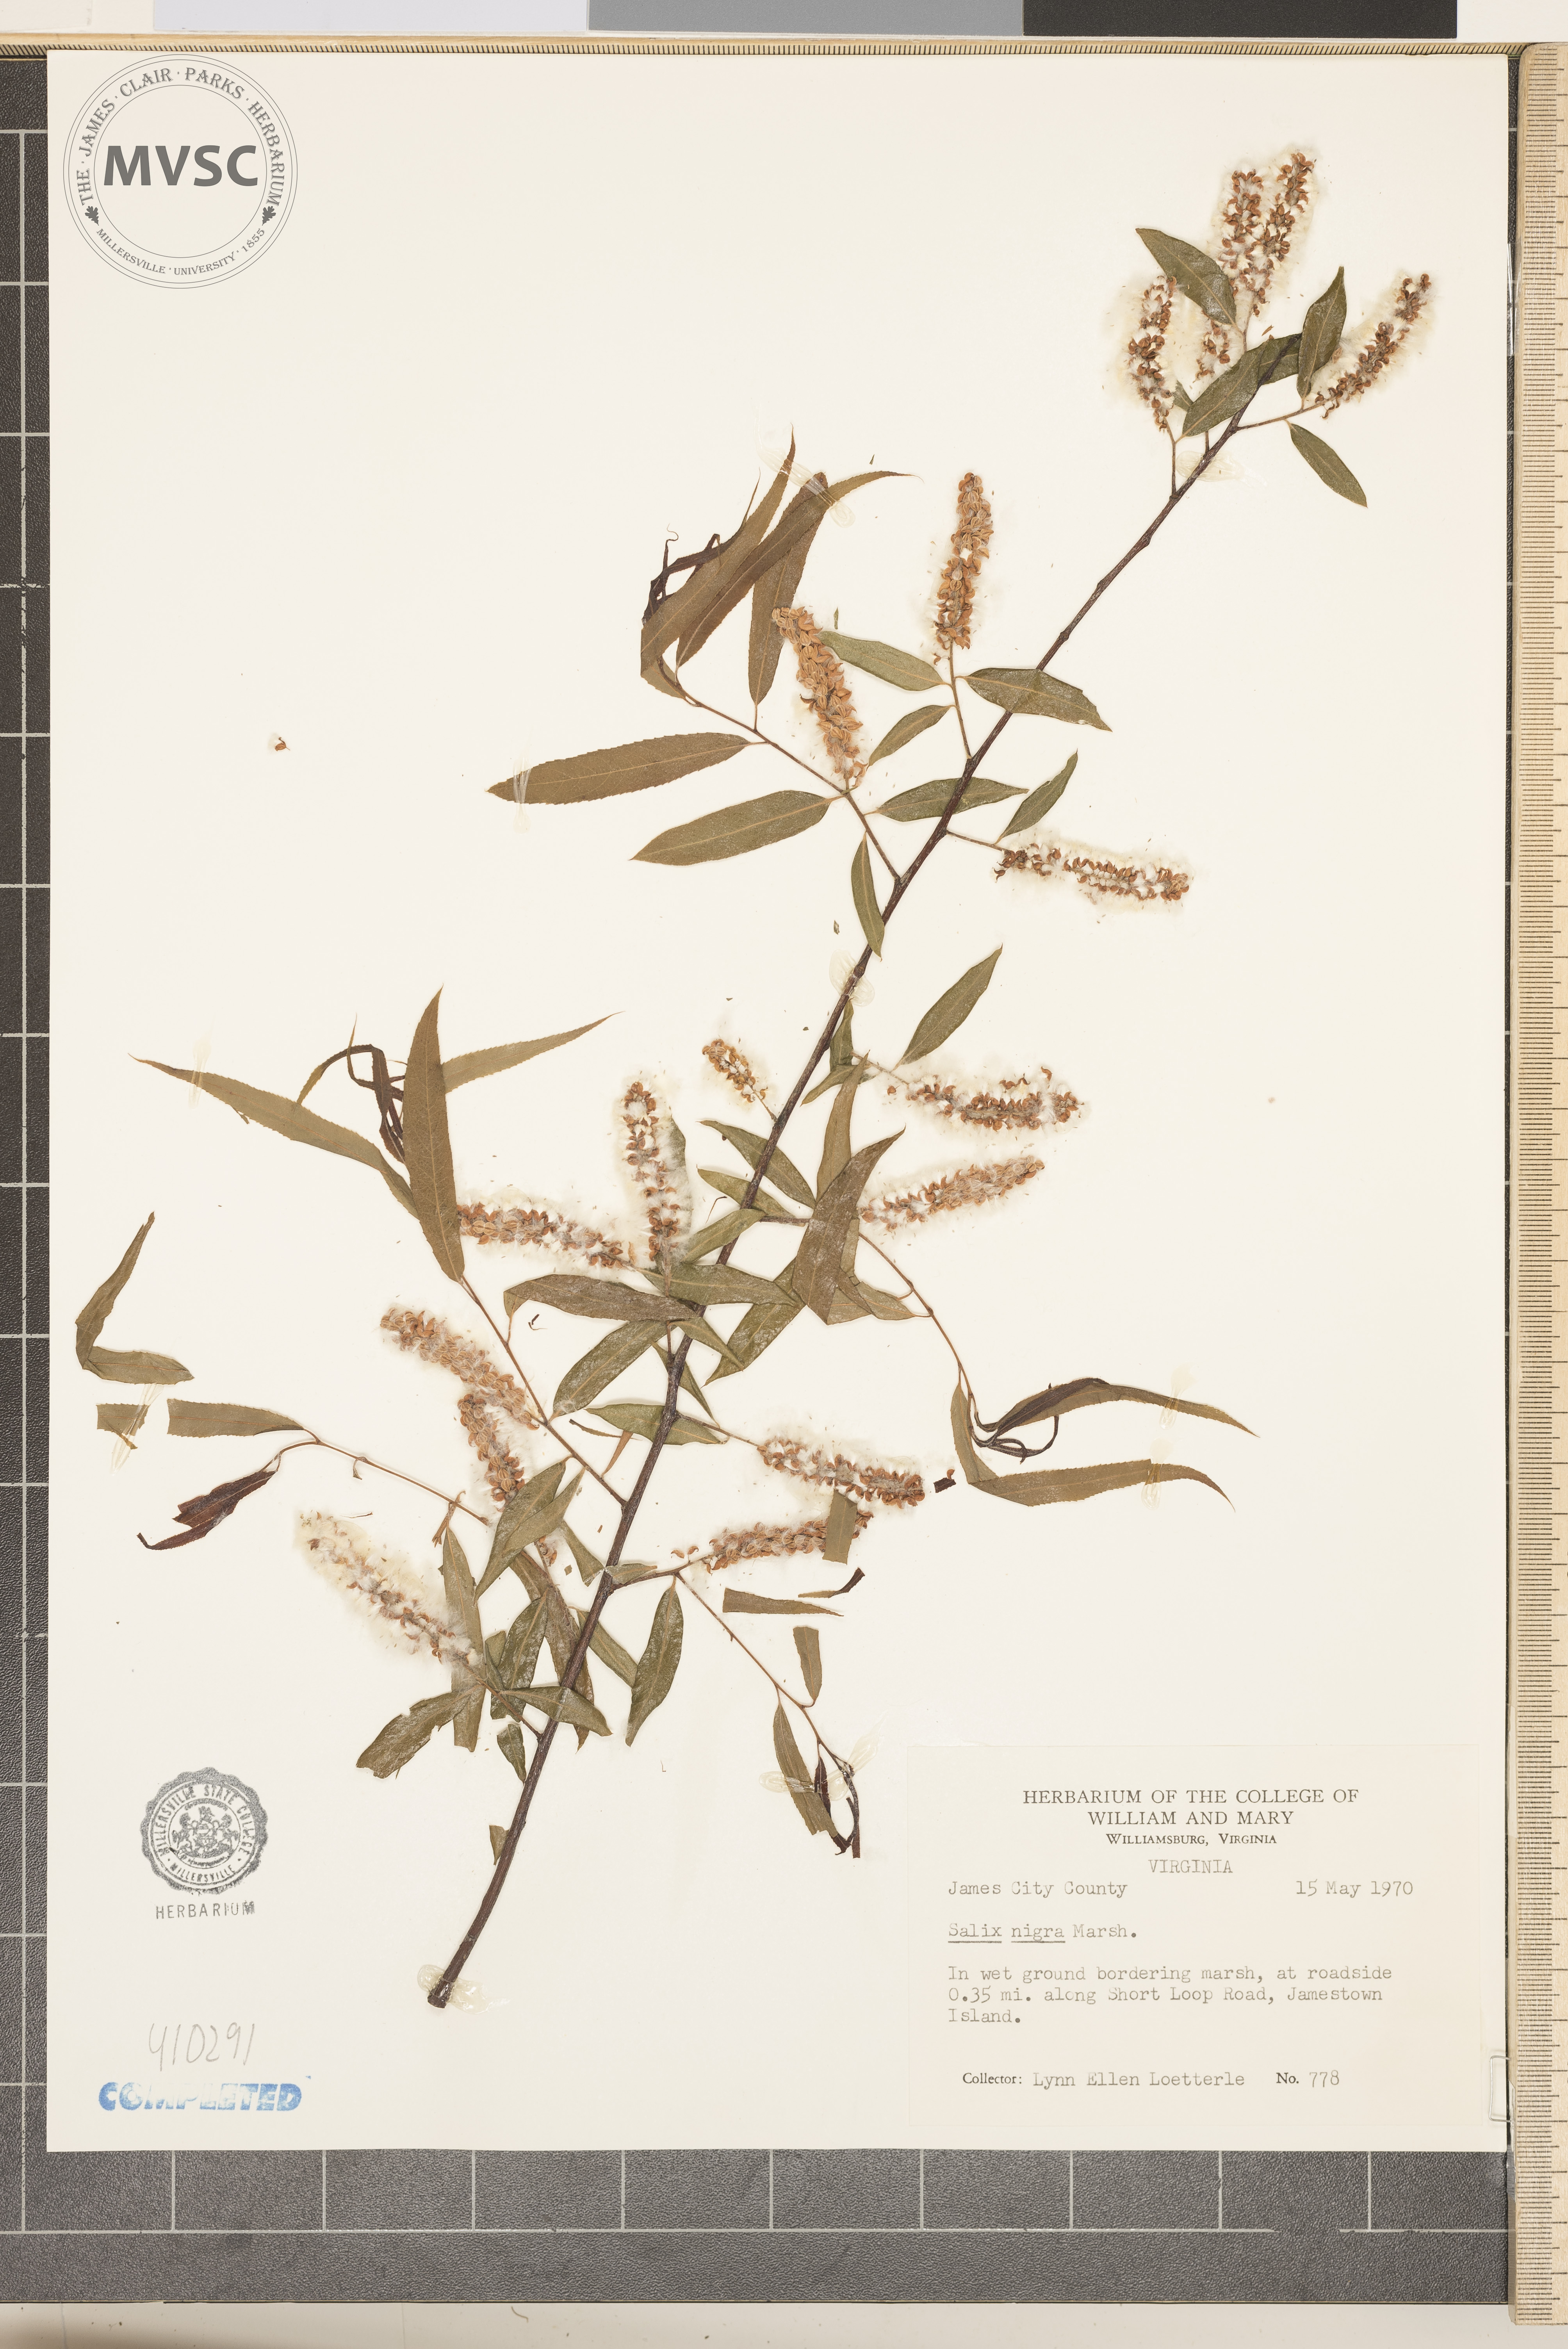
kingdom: Plantae
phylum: Tracheophyta
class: Magnoliopsida
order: Malpighiales
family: Salicaceae
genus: Salix
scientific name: Salix nigra
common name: Black willow
